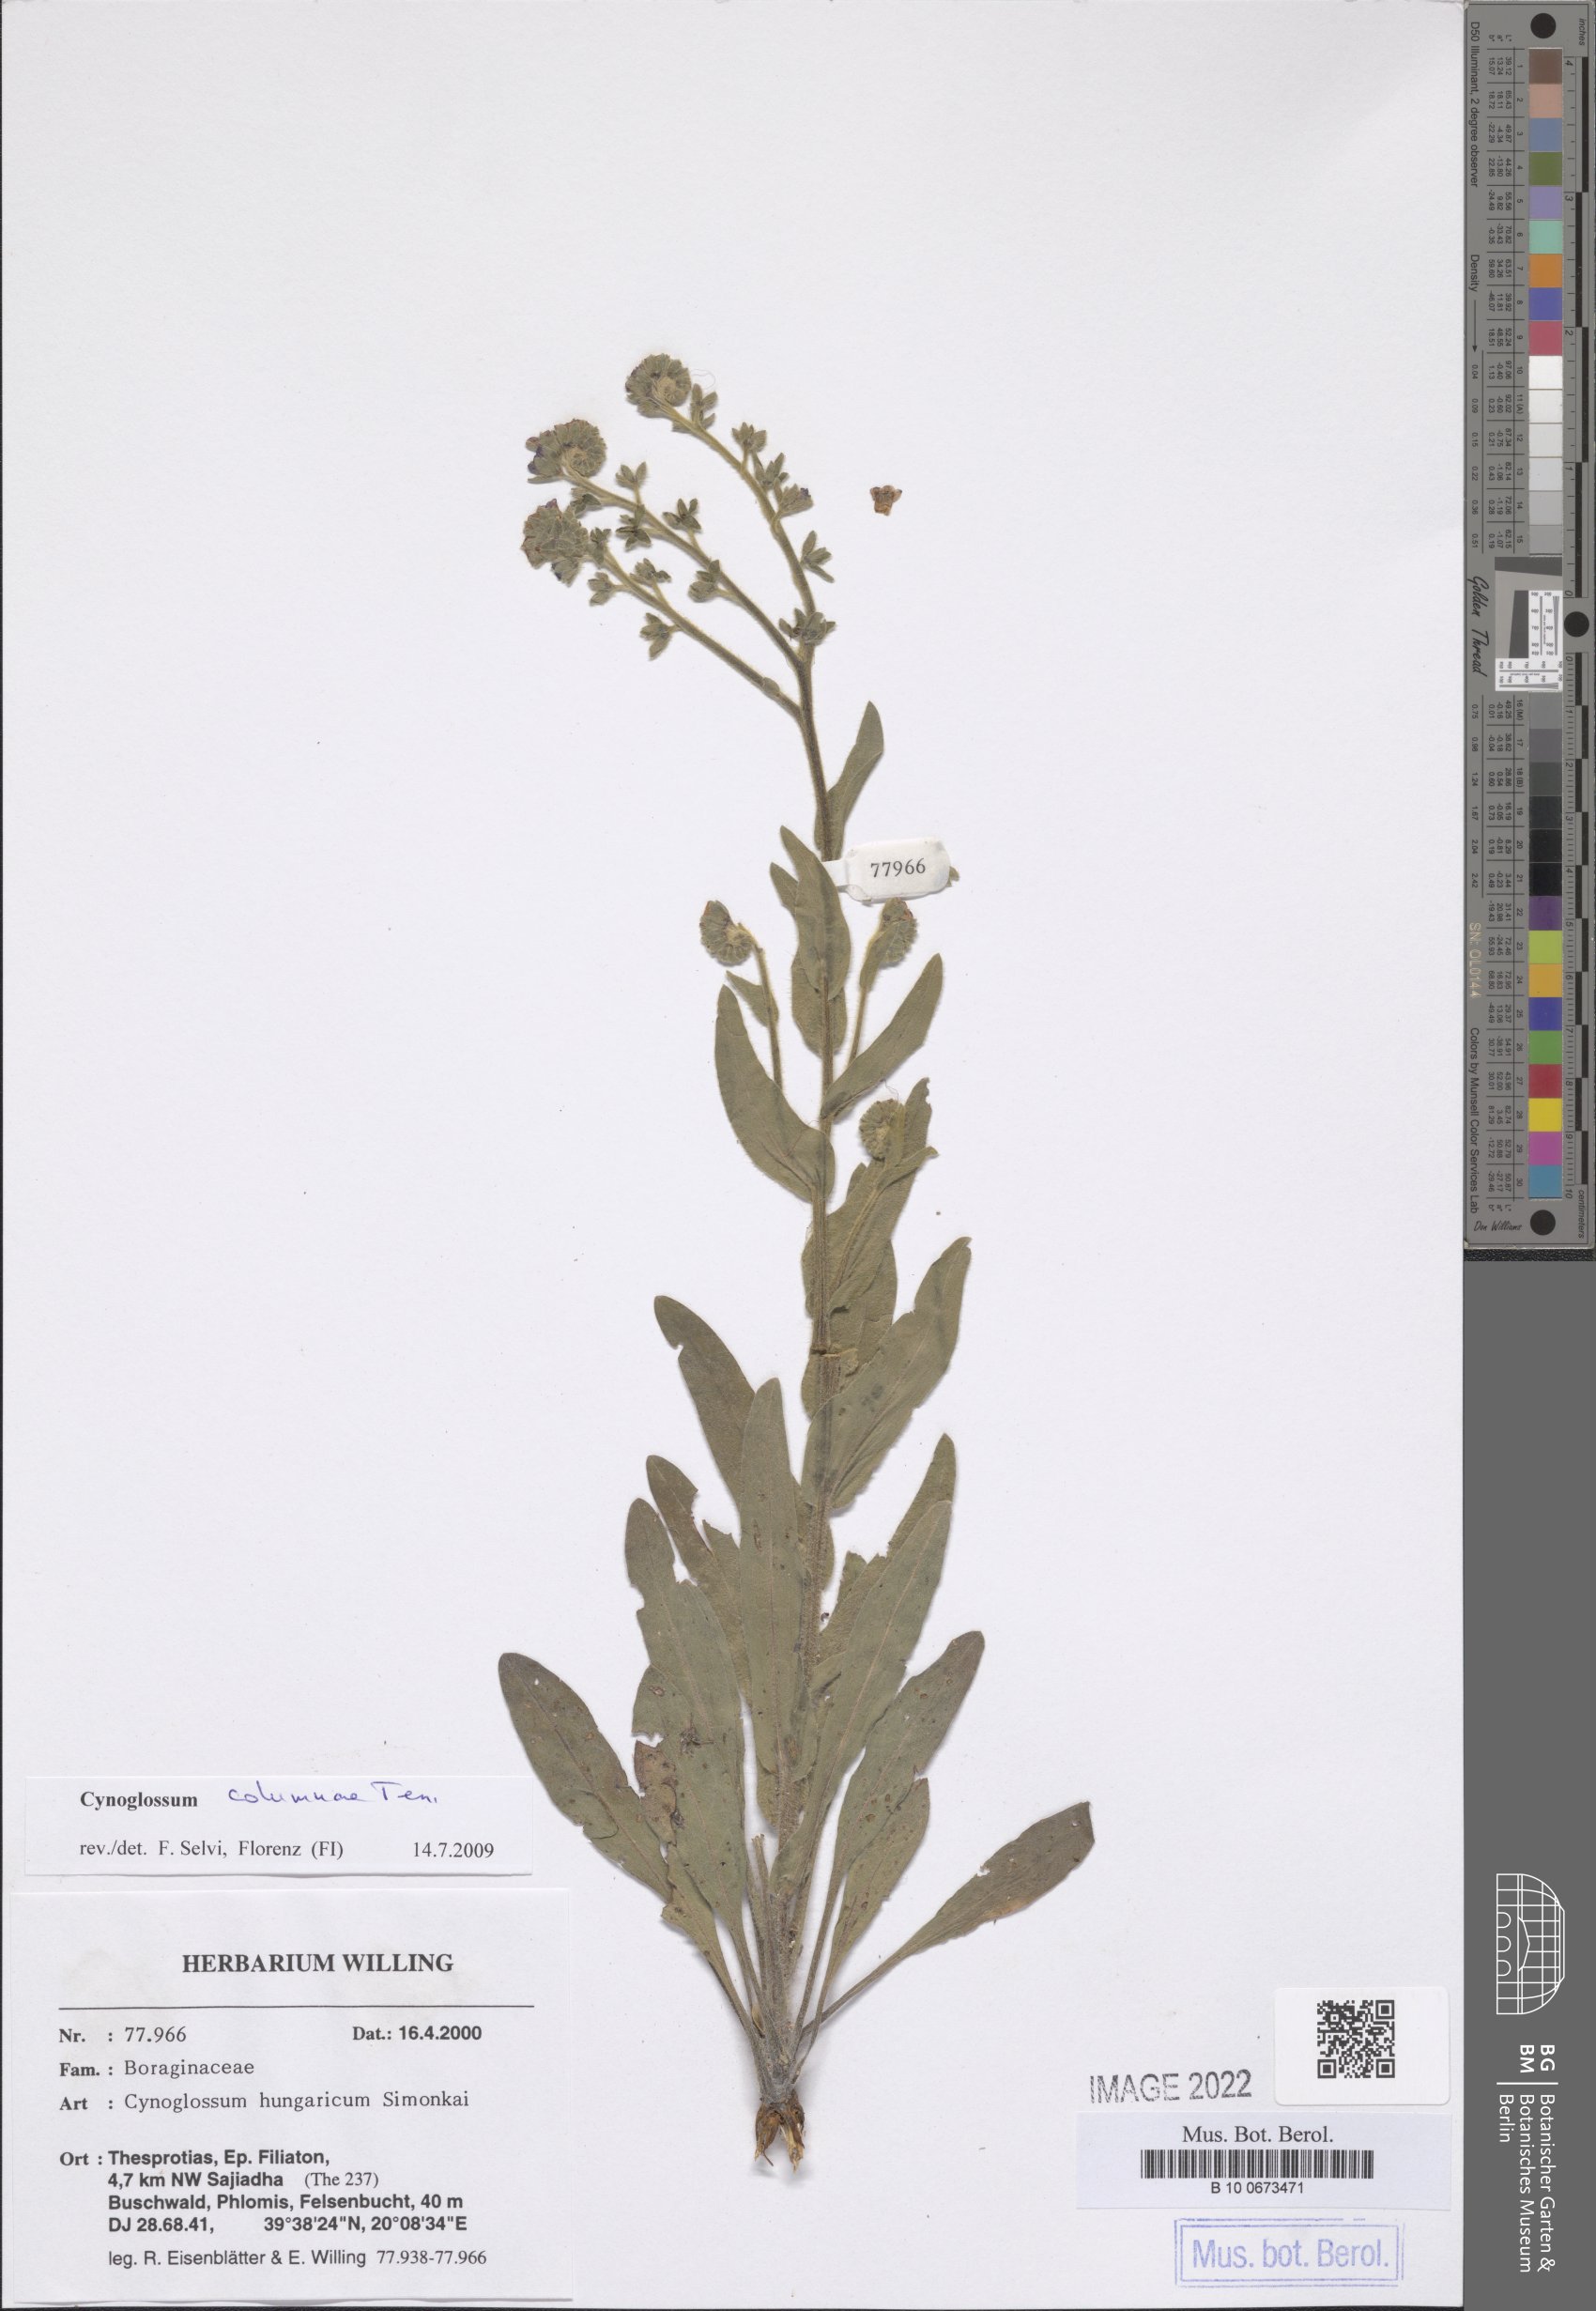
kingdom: Plantae
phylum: Tracheophyta
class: Magnoliopsida
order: Boraginales
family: Boraginaceae
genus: Rindera
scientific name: Rindera columnae
